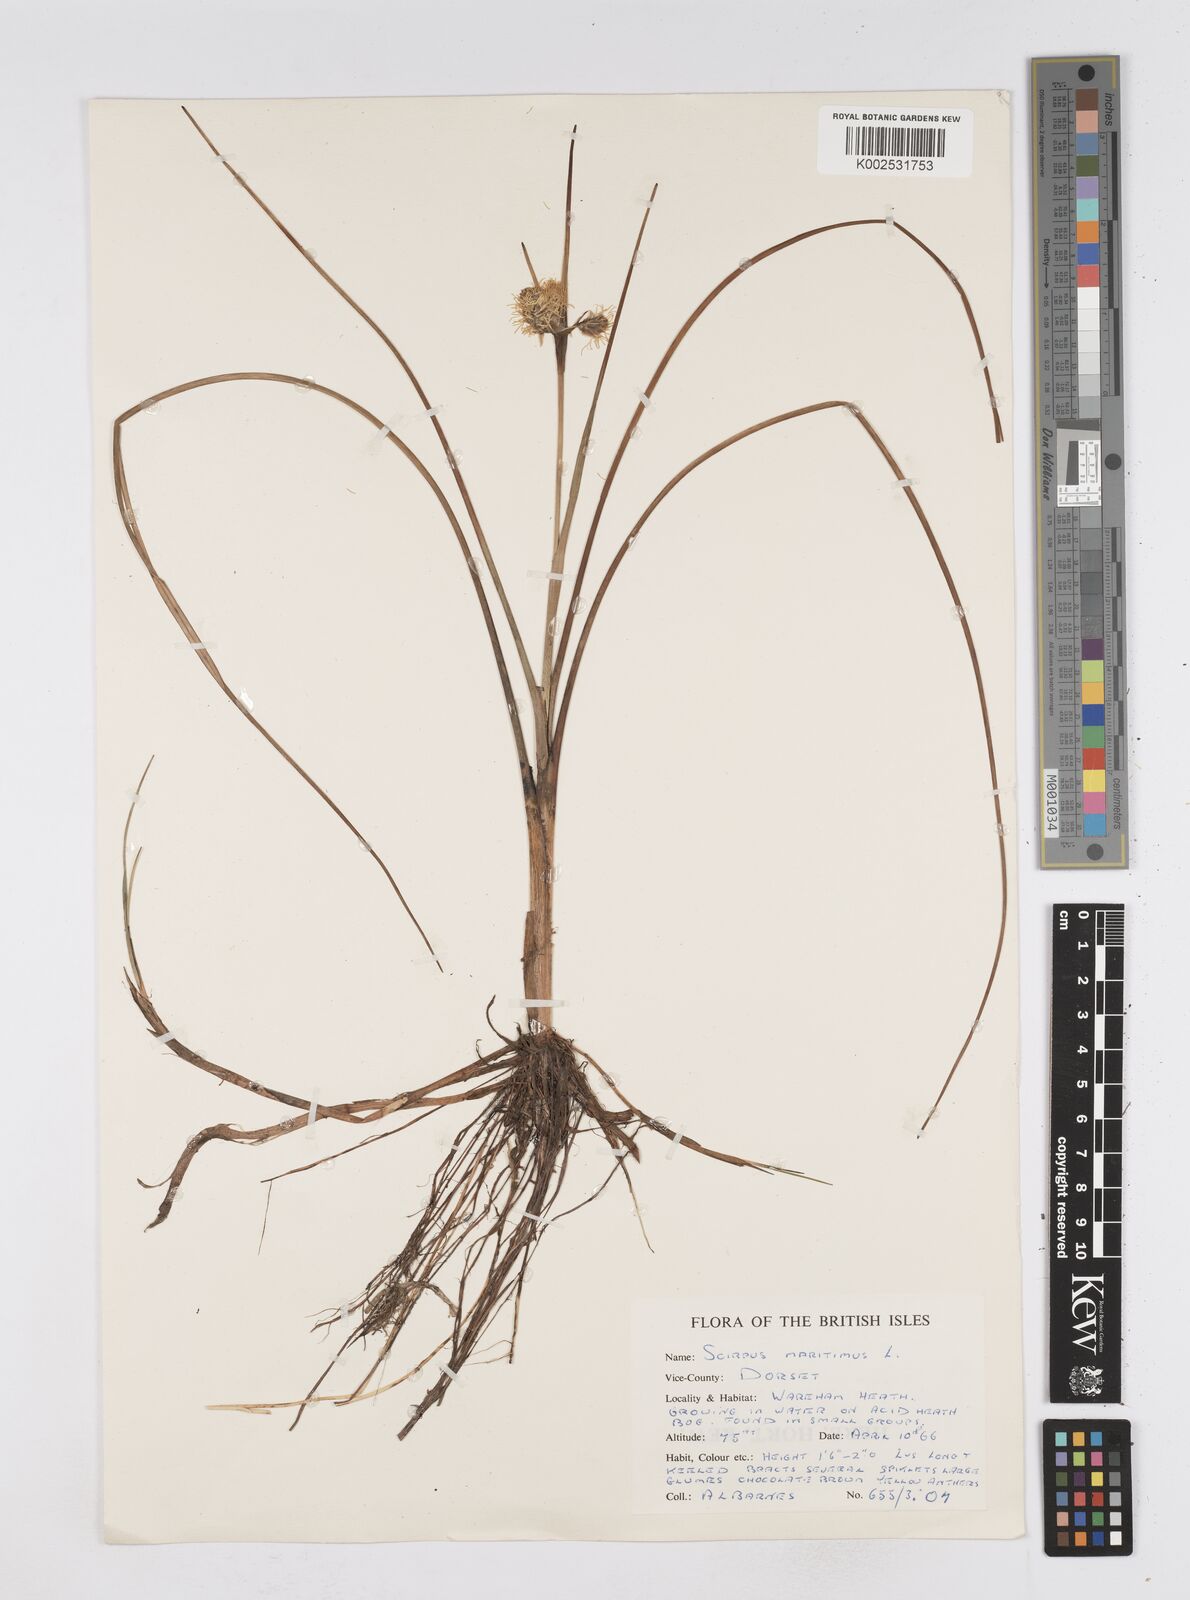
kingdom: Plantae
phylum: Tracheophyta
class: Liliopsida
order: Poales
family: Cyperaceae
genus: Bolboschoenus
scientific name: Bolboschoenus maritimus
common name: Sea club-rush
